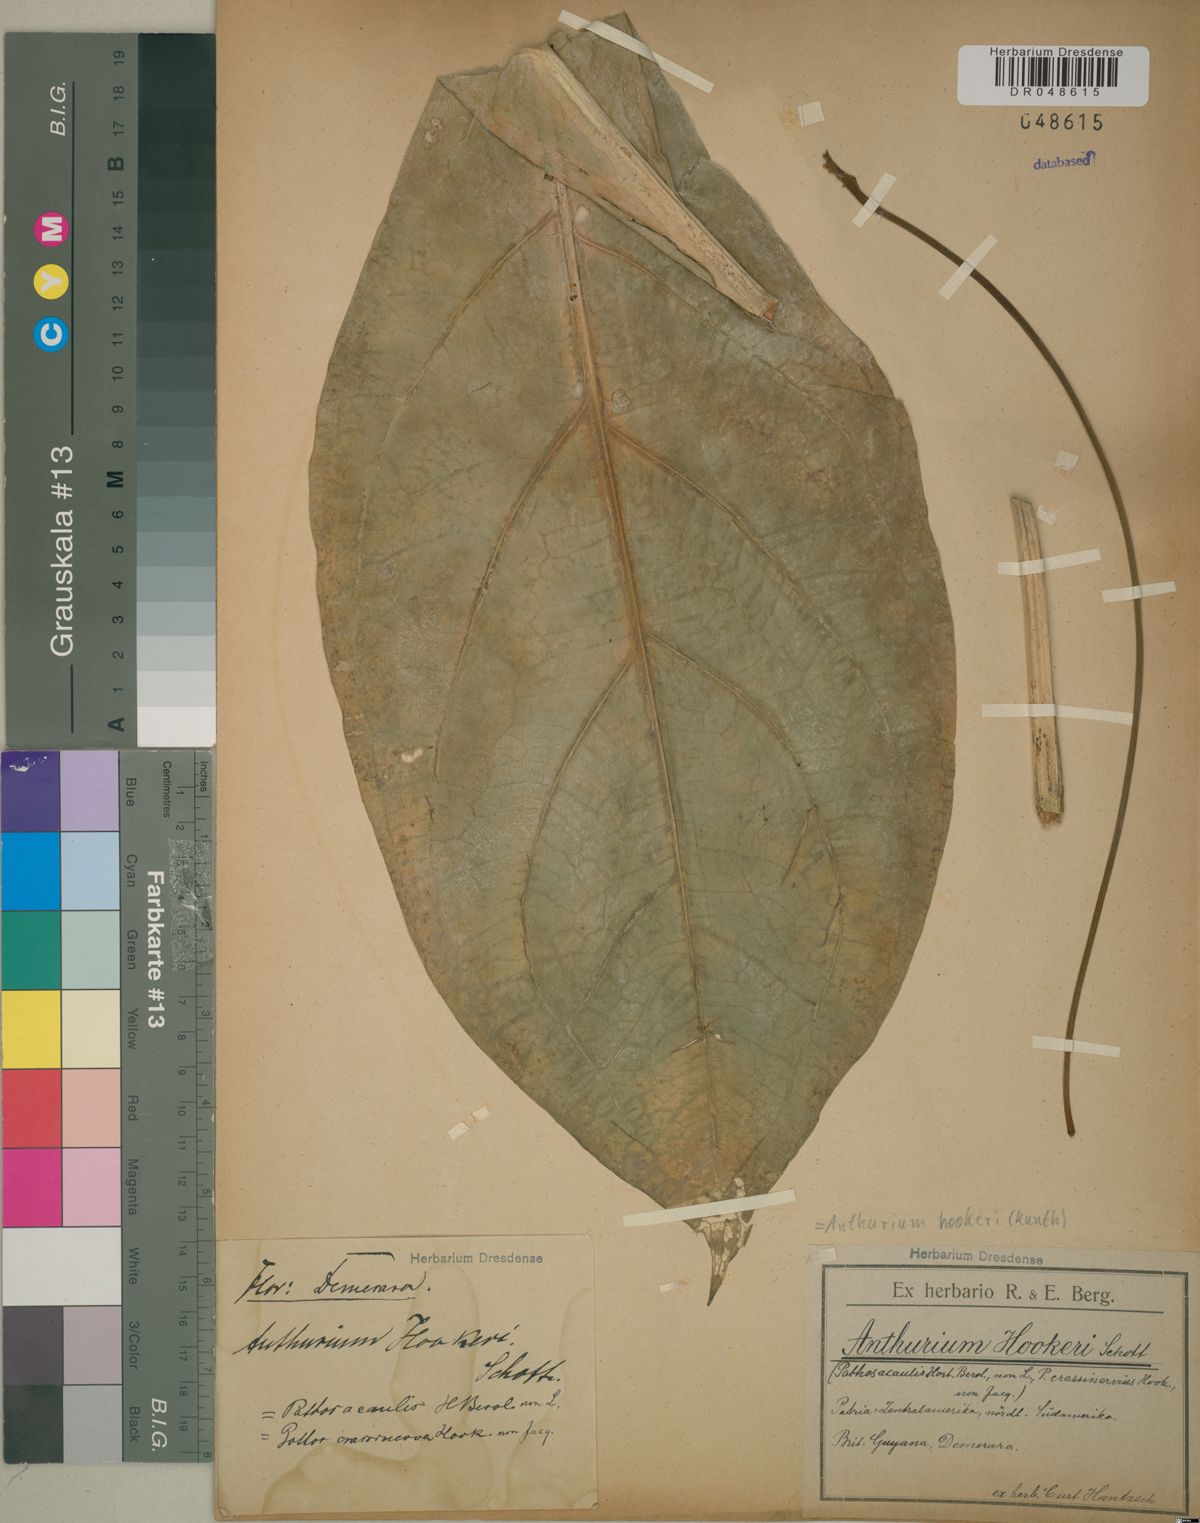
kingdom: Plantae
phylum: Tracheophyta
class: Liliopsida
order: Alismatales
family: Araceae
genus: Anthurium
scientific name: Anthurium hookeri
